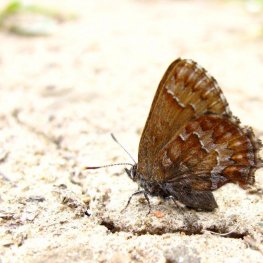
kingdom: Animalia
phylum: Arthropoda
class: Insecta
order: Lepidoptera
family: Lycaenidae
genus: Incisalia
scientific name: Incisalia niphon
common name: Eastern Pine Elfin
